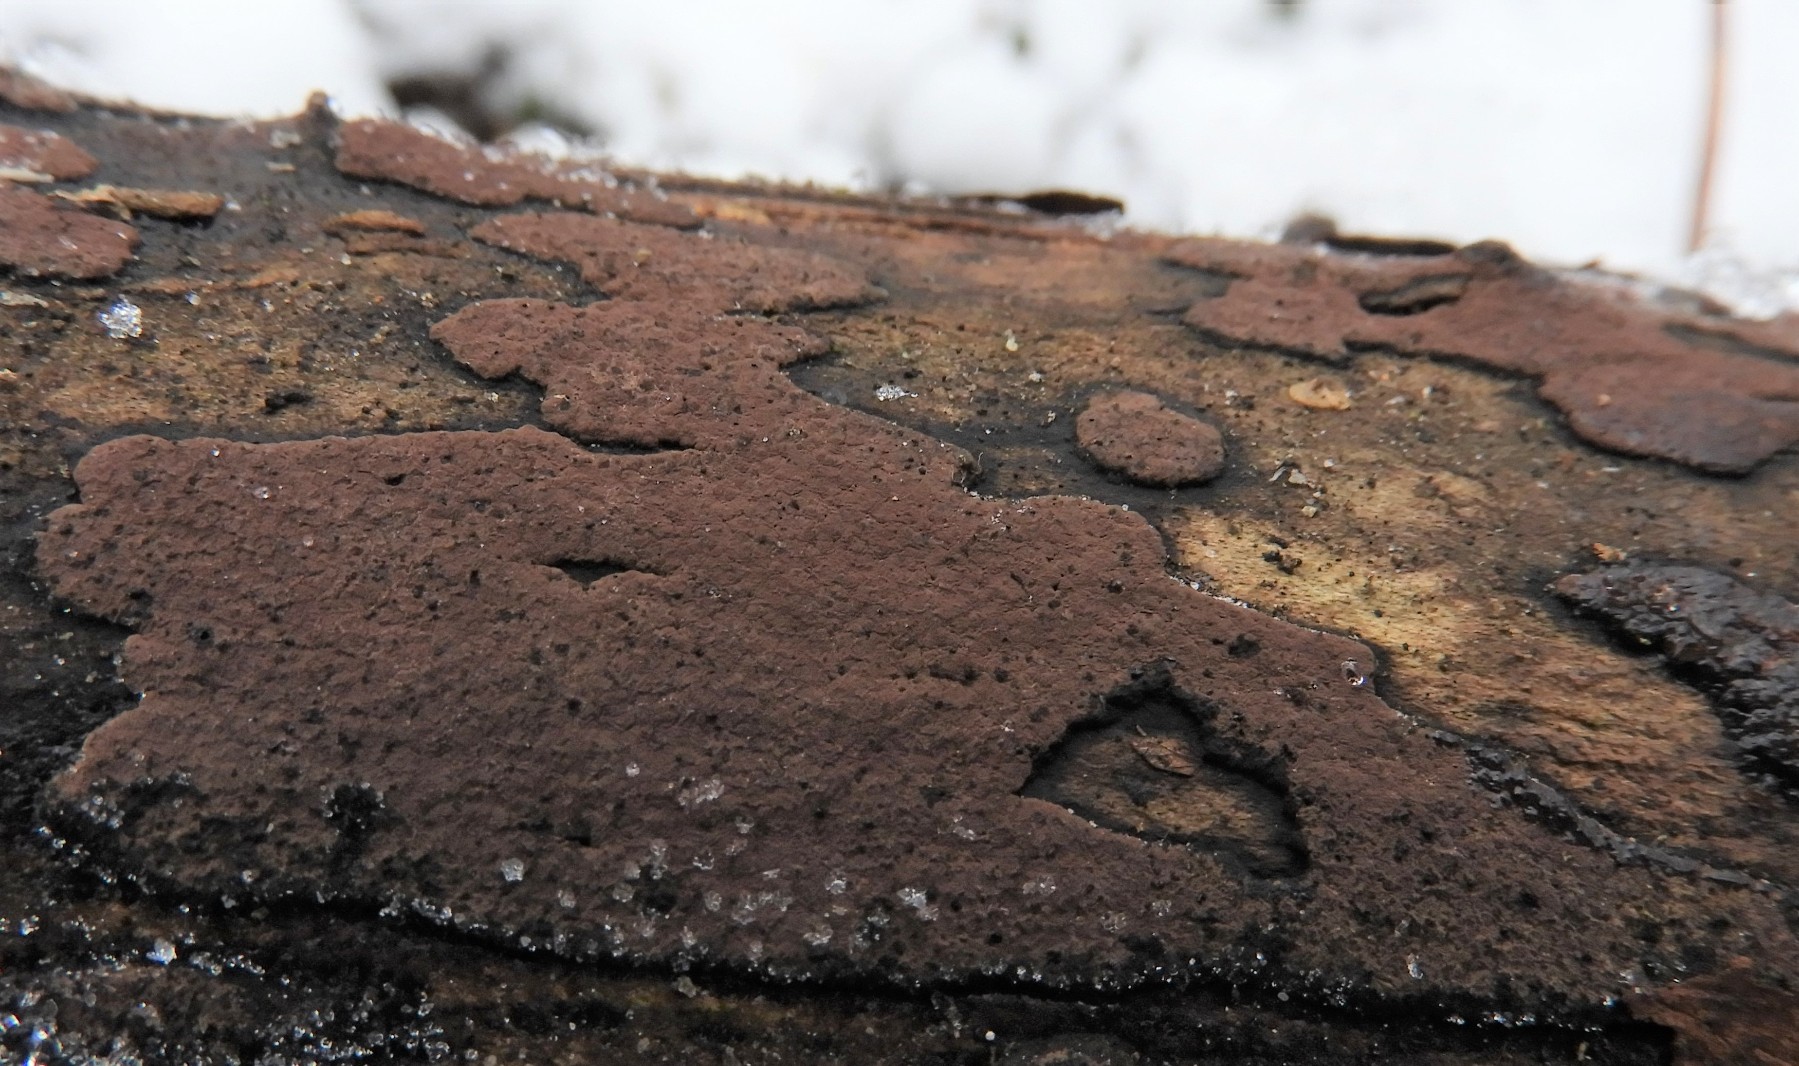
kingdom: Fungi
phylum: Ascomycota
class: Sordariomycetes
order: Xylariales
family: Hypoxylaceae
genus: Hypoxylon
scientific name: Hypoxylon petriniae
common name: nedsænket kulbær
